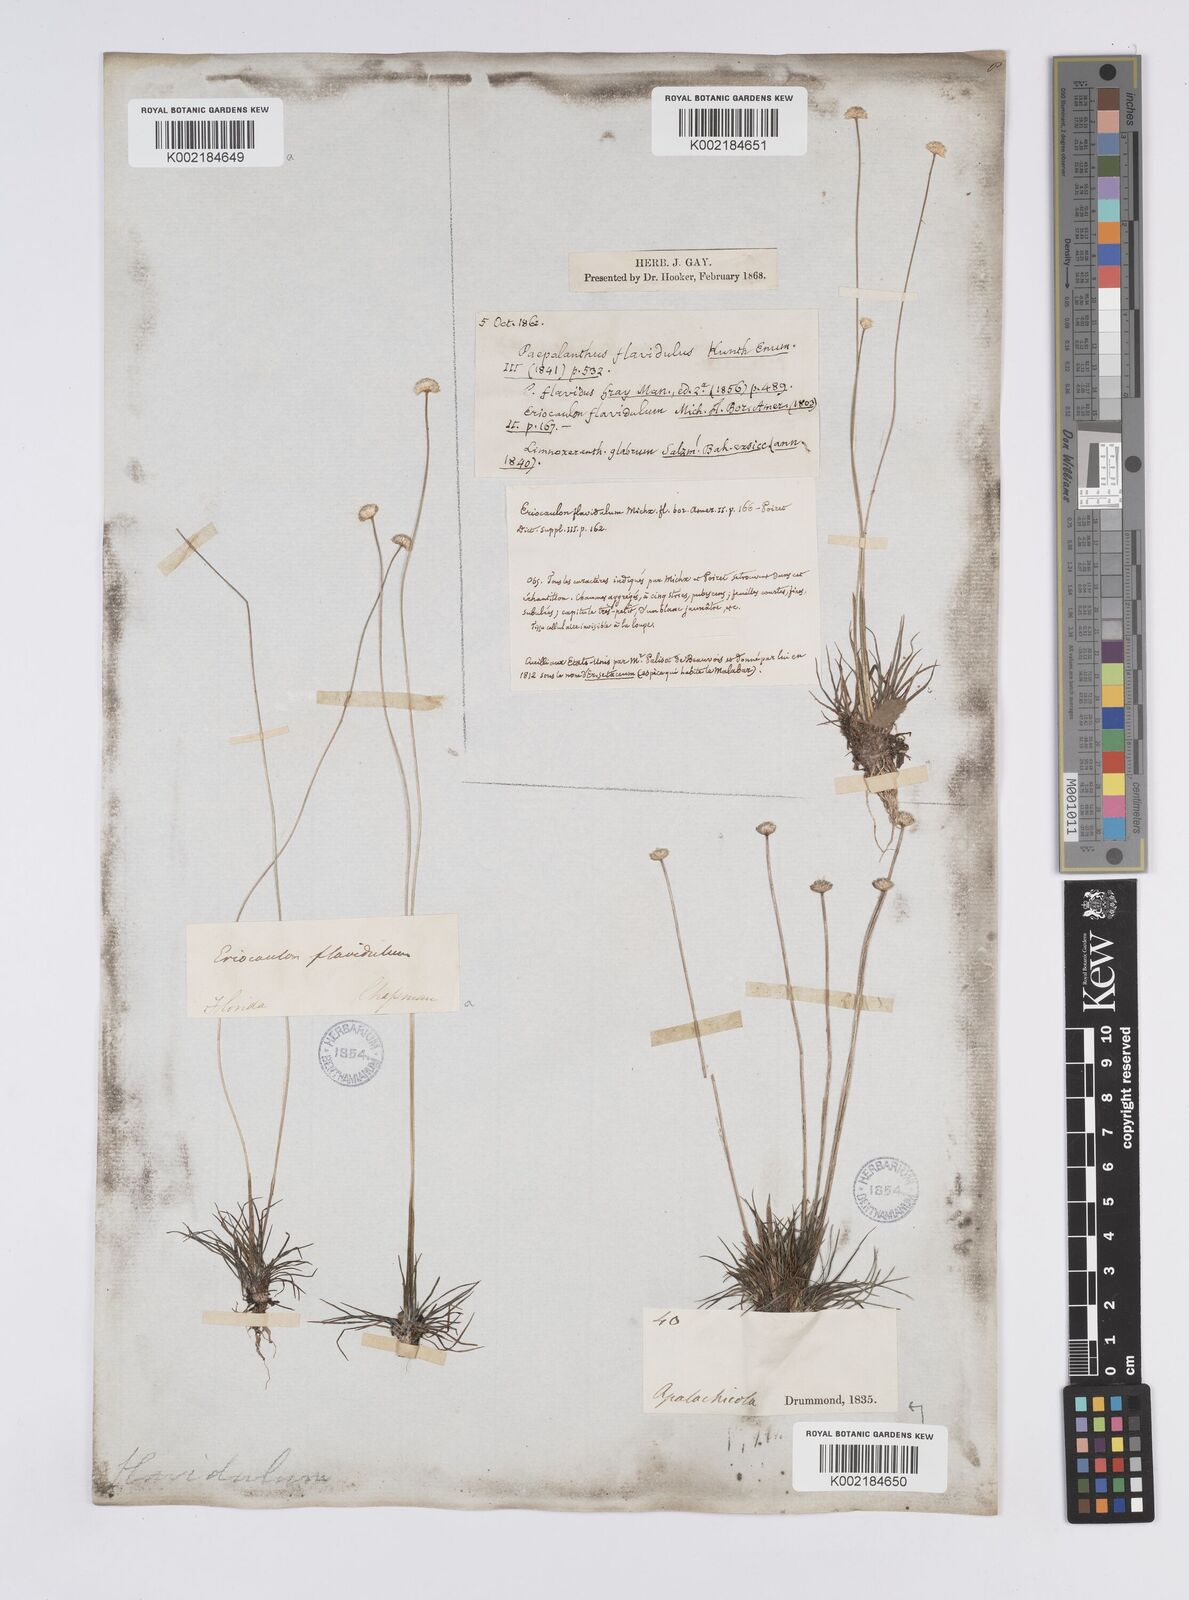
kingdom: Plantae
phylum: Tracheophyta
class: Liliopsida
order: Poales
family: Eriocaulaceae
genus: Syngonanthus
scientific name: Syngonanthus flavidulus
